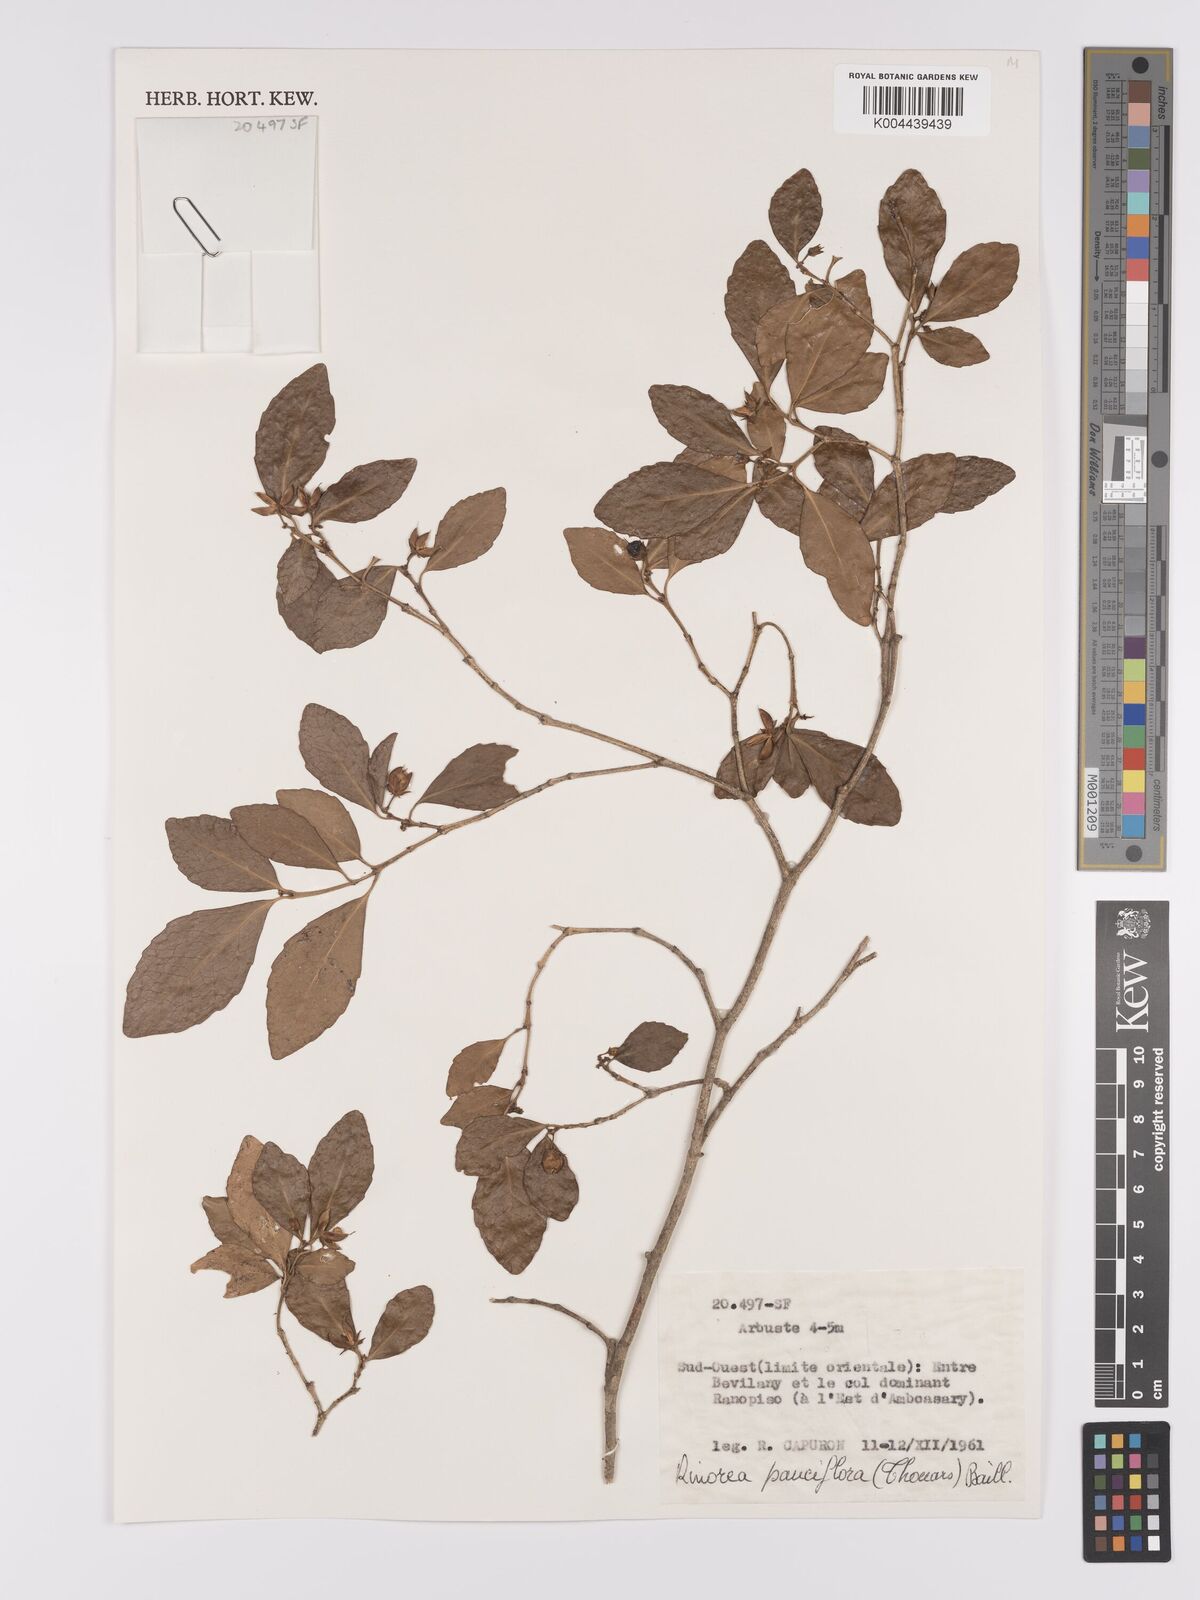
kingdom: Plantae
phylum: Tracheophyta
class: Magnoliopsida
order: Malpighiales
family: Violaceae
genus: Rinorea
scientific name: Rinorea pauciflora
